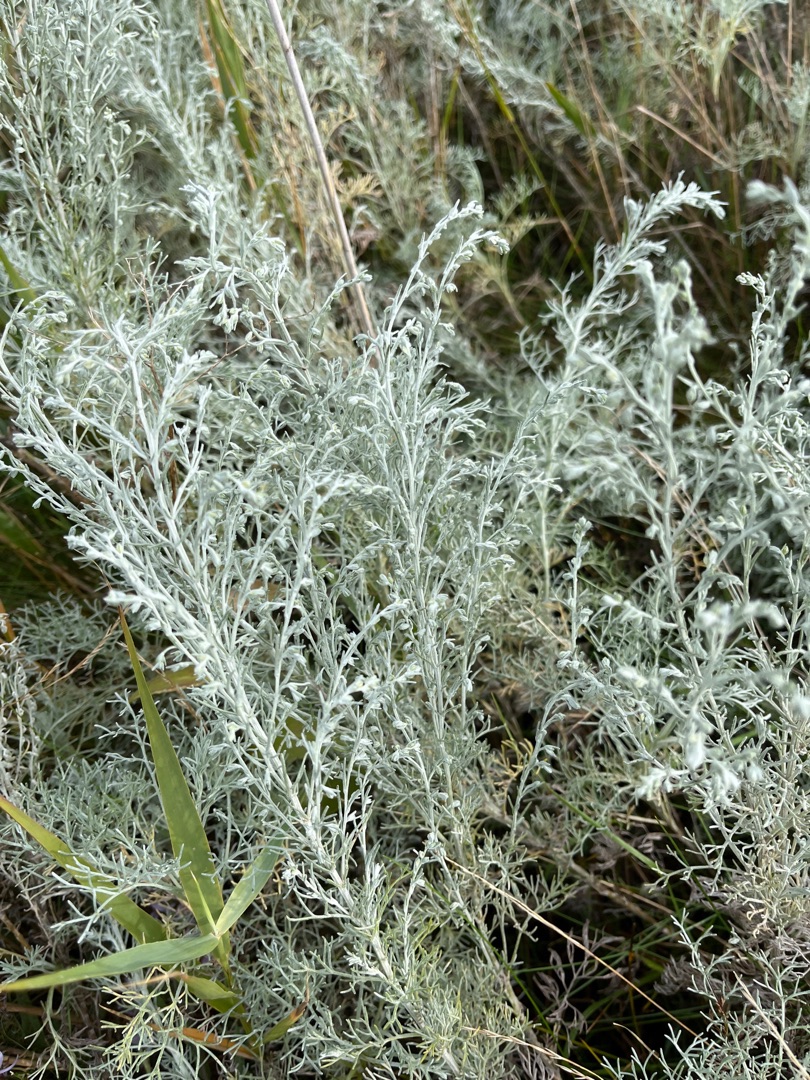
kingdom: Plantae
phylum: Tracheophyta
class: Magnoliopsida
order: Asterales
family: Asteraceae
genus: Artemisia
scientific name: Artemisia maritima
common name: Strandmalurt
